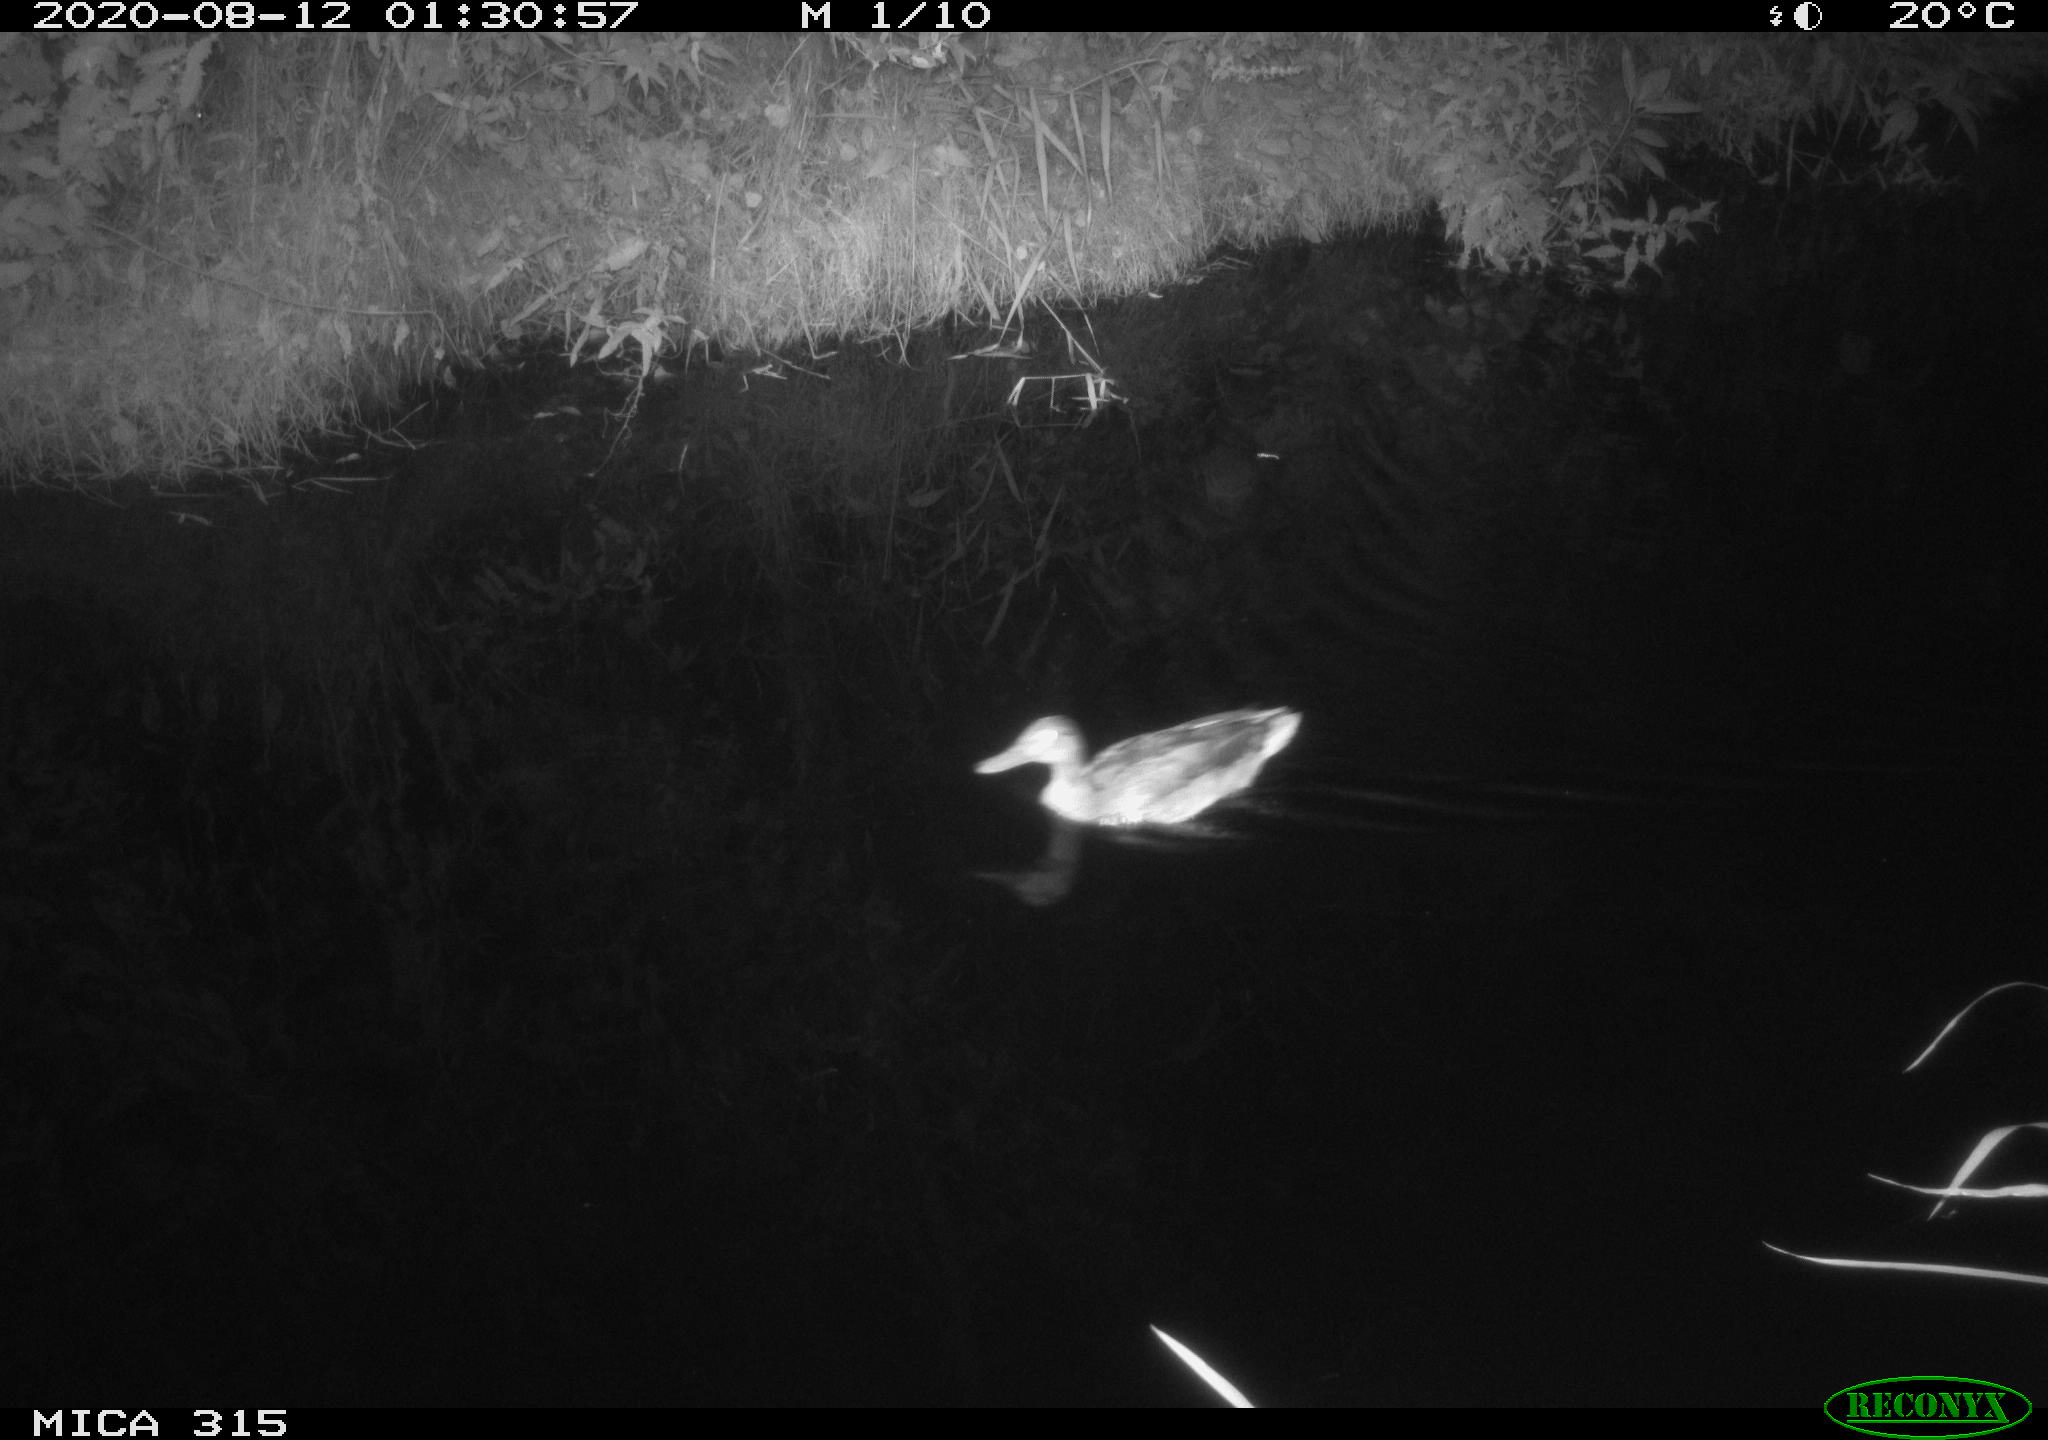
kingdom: Animalia
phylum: Chordata
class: Aves
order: Anseriformes
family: Anatidae
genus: Anas
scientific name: Anas platyrhynchos
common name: Mallard
